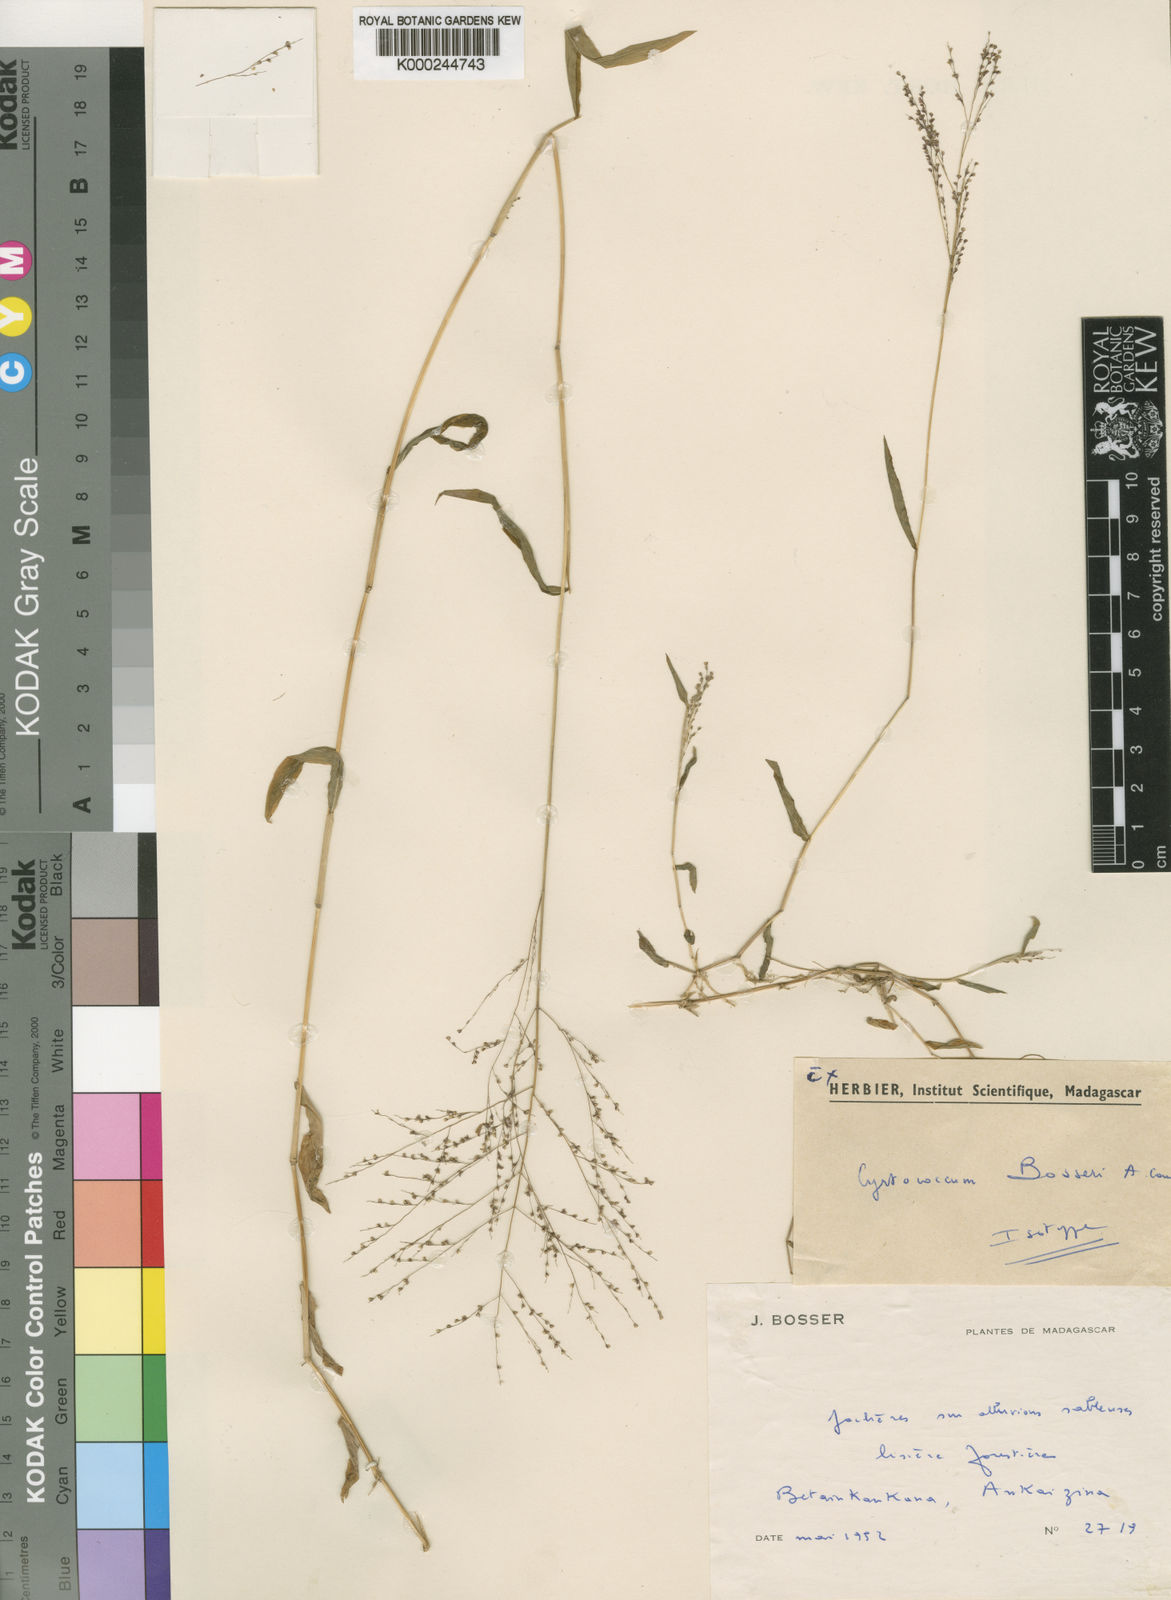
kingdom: Plantae
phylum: Tracheophyta
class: Liliopsida
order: Poales
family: Poaceae
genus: Cyrtococcum
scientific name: Cyrtococcum bosseri
